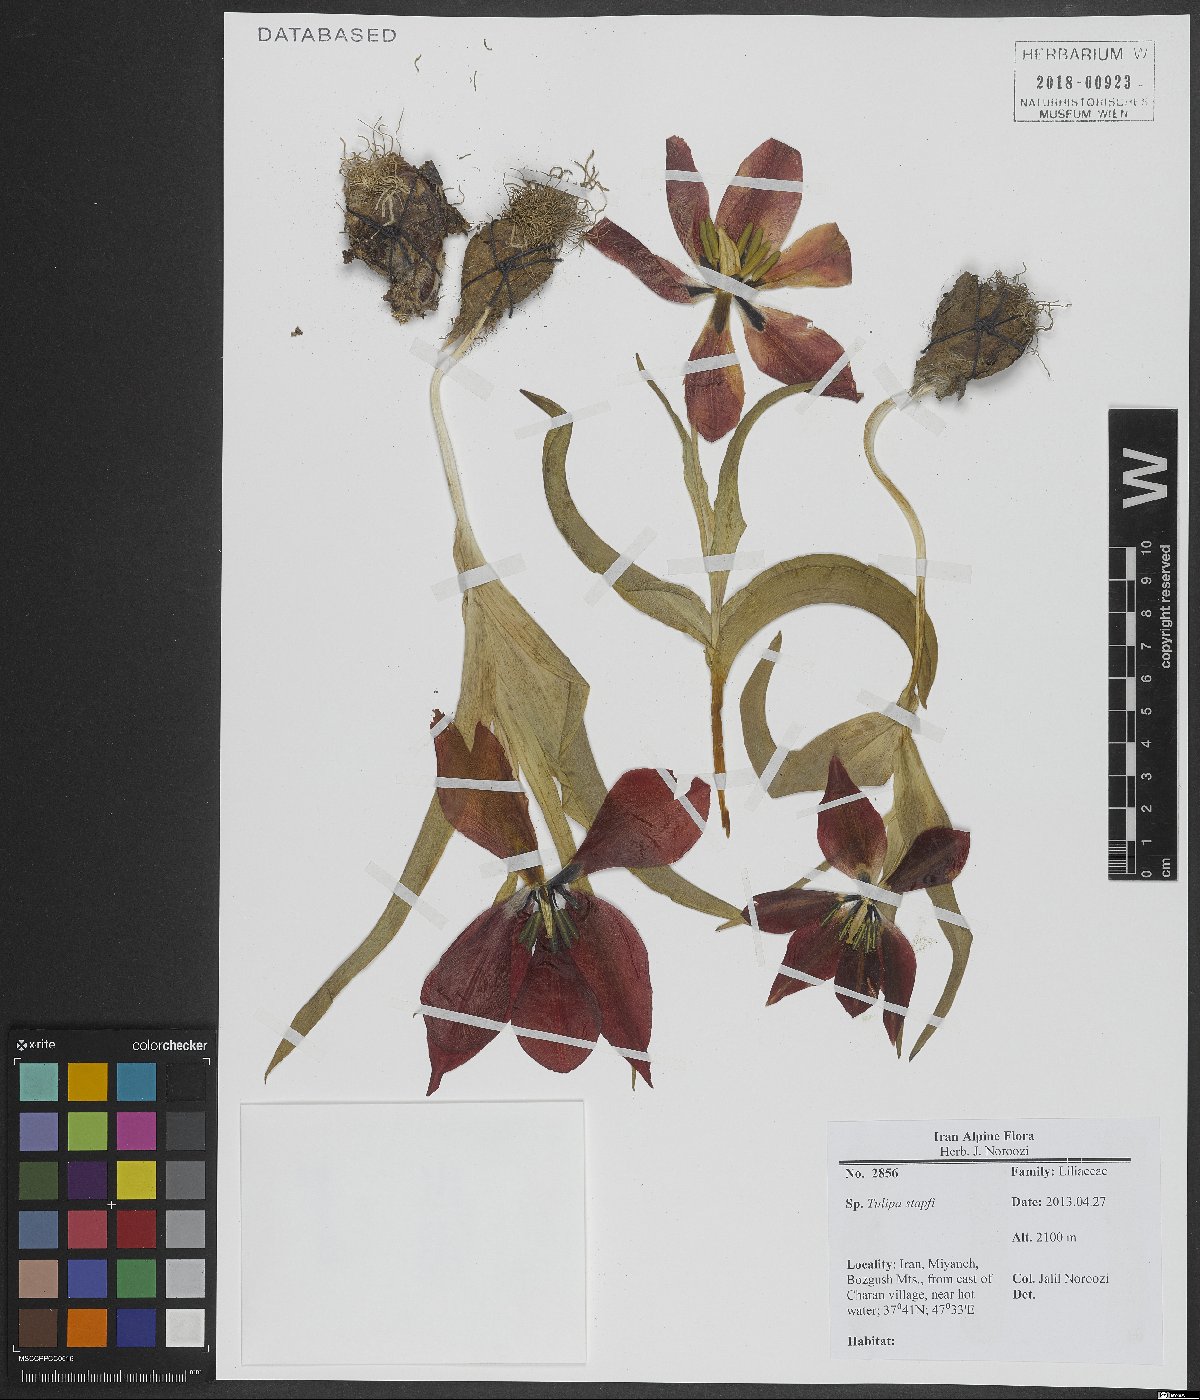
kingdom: Plantae
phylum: Tracheophyta
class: Liliopsida
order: Liliales
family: Liliaceae
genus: Tulipa
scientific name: Tulipa systola
